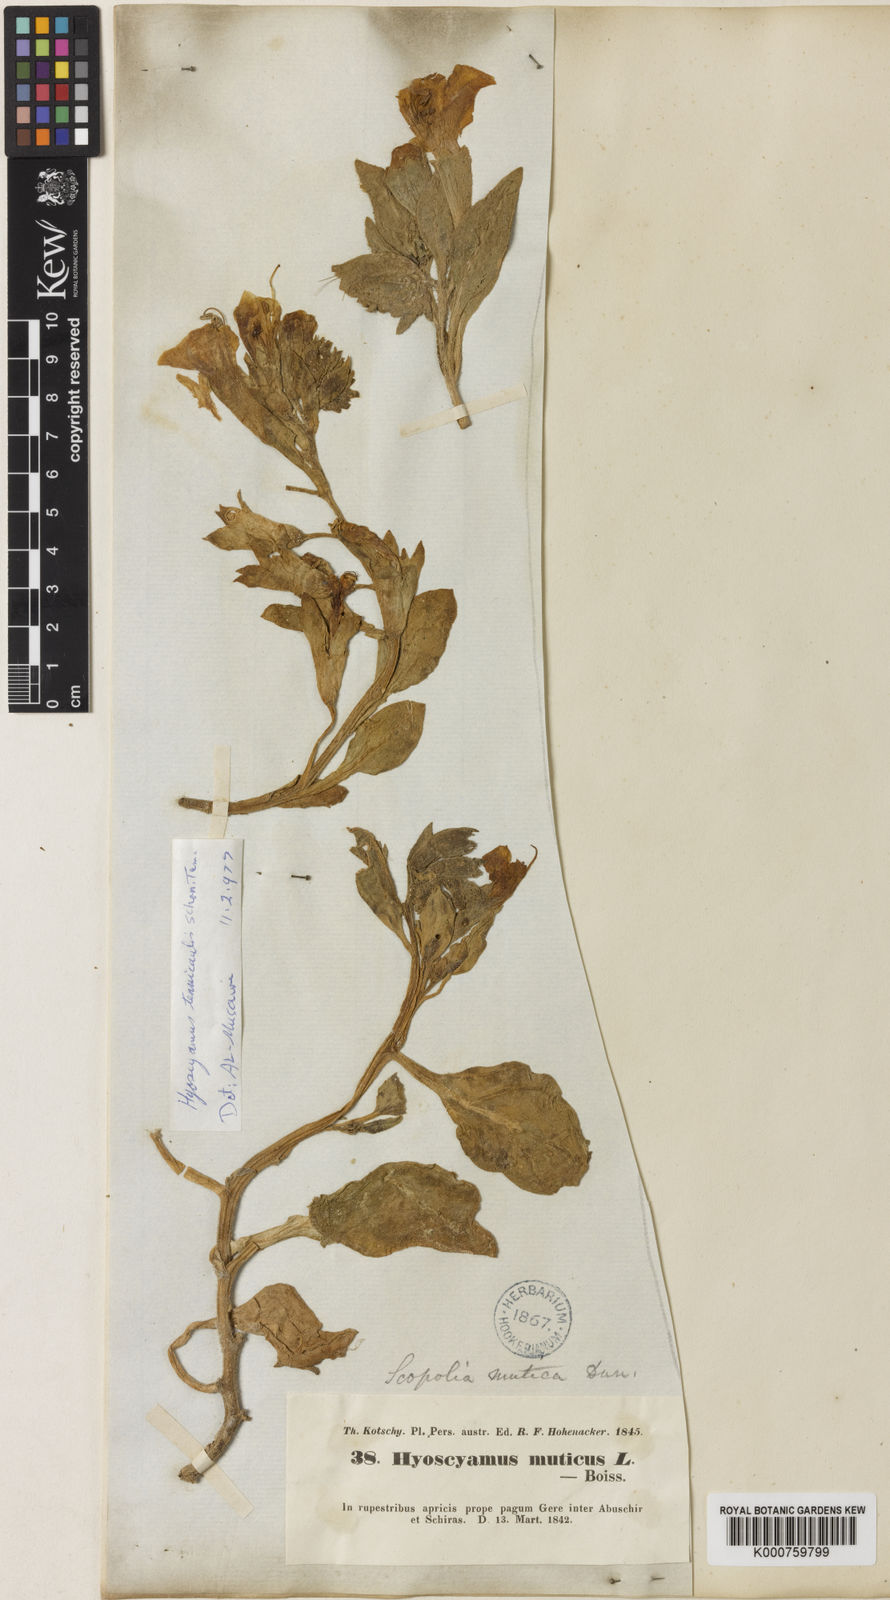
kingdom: Plantae
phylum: Tracheophyta
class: Magnoliopsida
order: Solanales
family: Solanaceae
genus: Hyoscyamus
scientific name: Hyoscyamus
